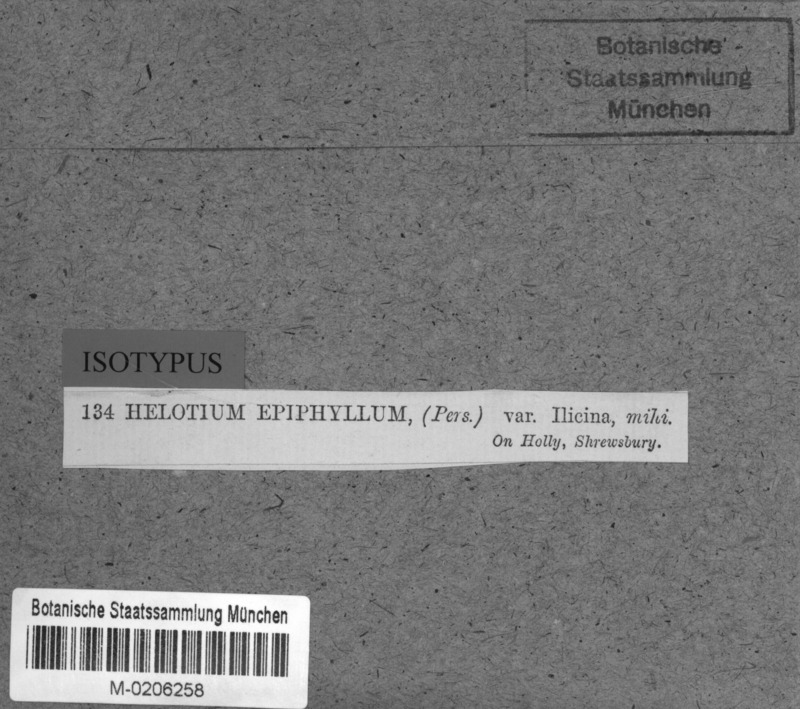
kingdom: Plantae
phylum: Tracheophyta
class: Magnoliopsida
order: Aquifoliales
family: Aquifoliaceae
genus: Ilex
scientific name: Ilex
